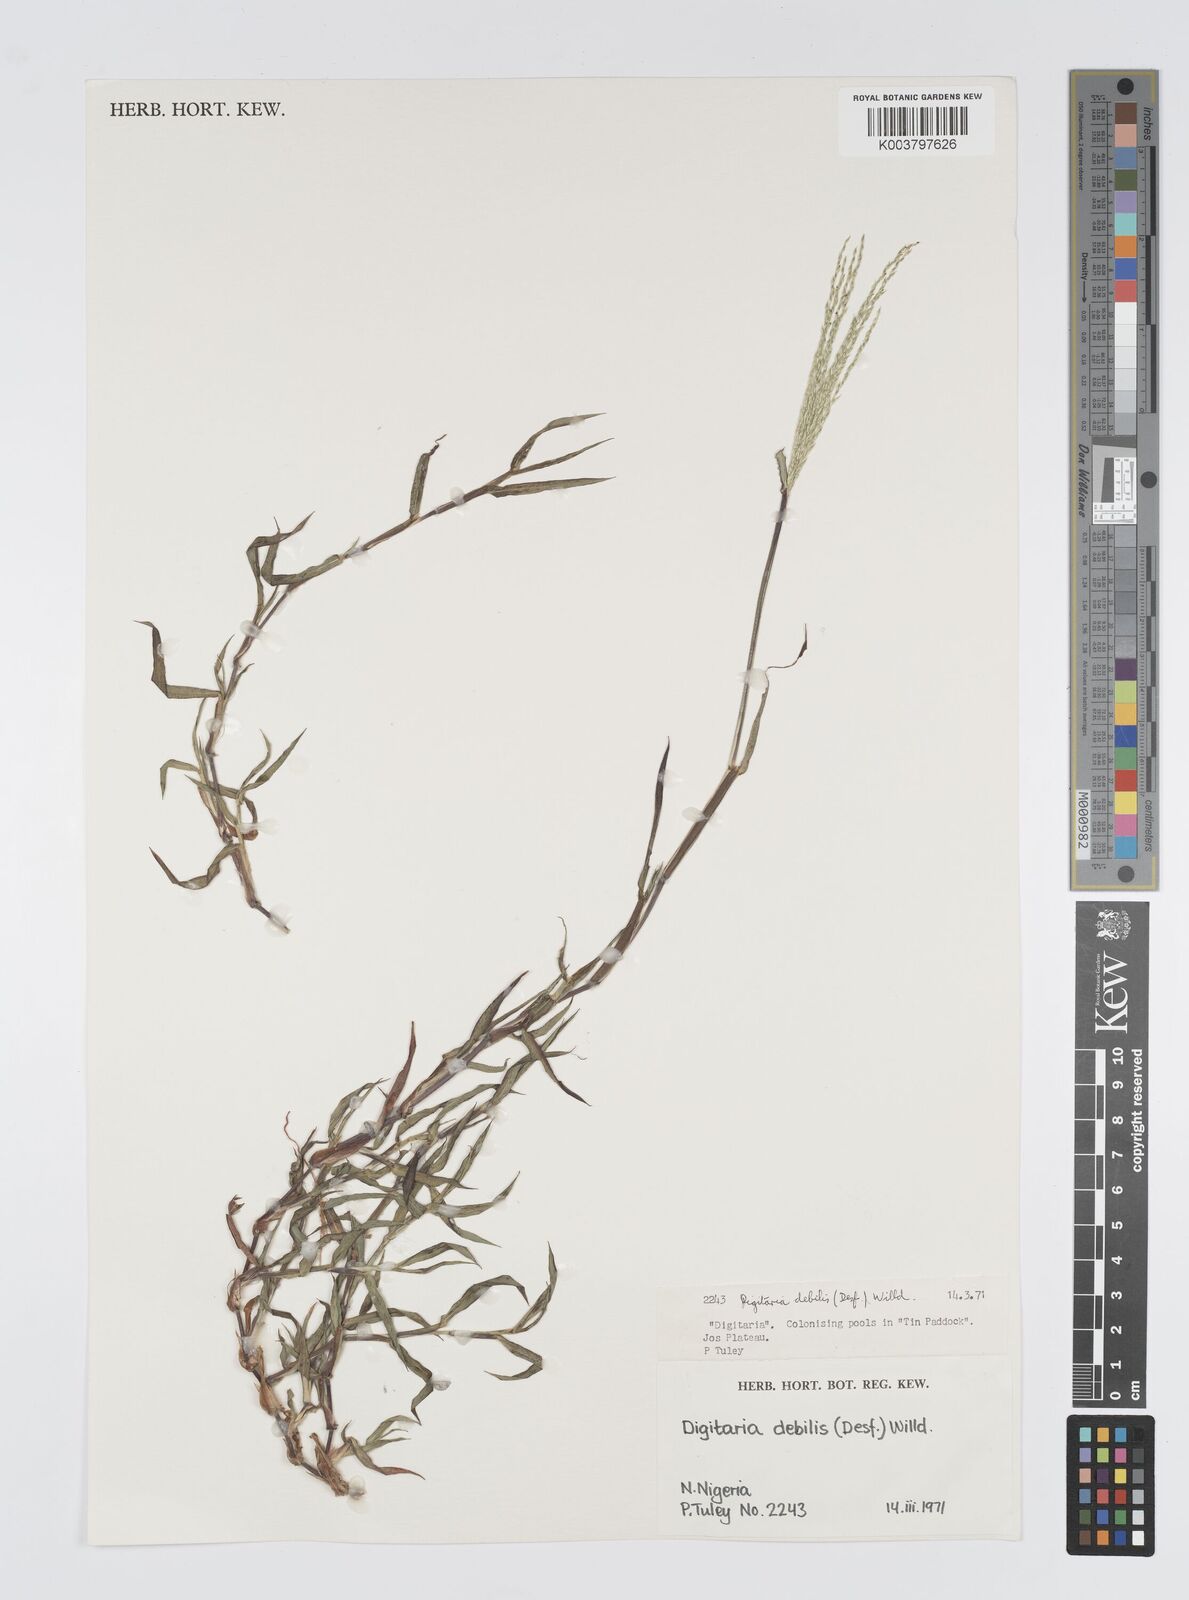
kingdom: Plantae
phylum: Tracheophyta
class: Liliopsida
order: Poales
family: Poaceae
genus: Digitaria
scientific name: Digitaria debilis
